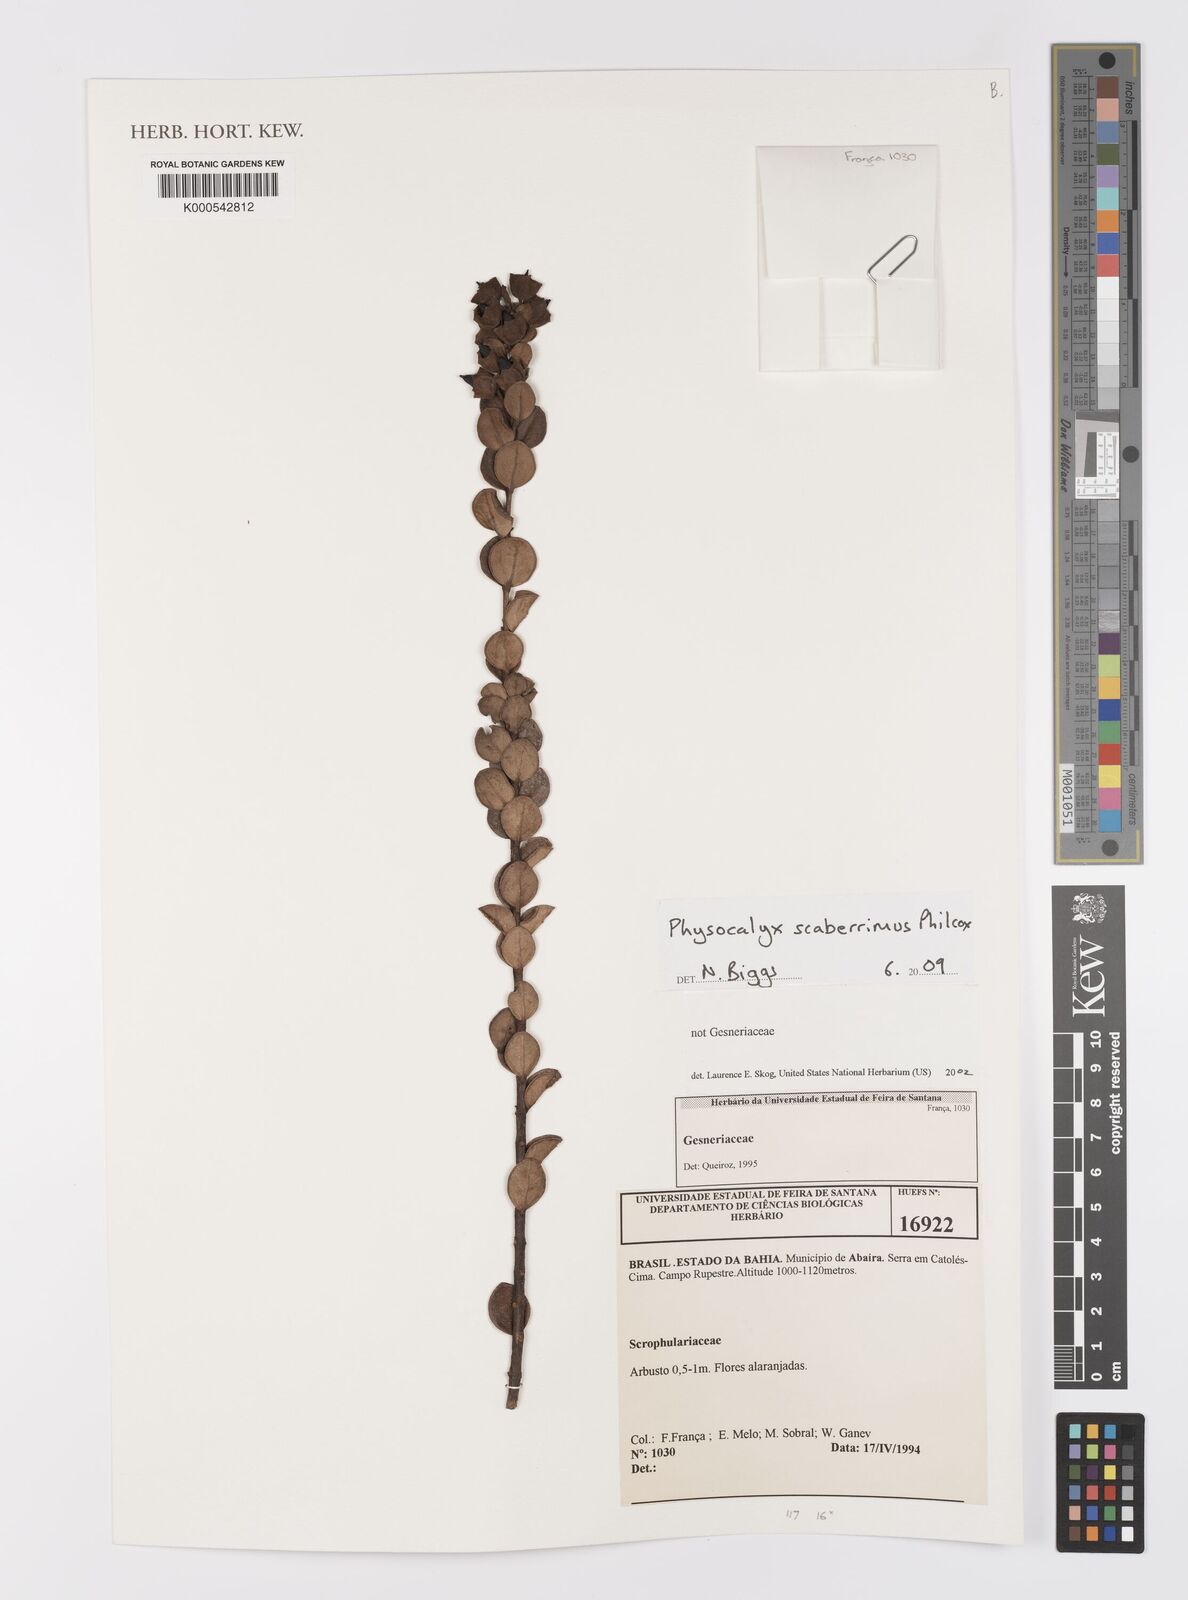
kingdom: Plantae
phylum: Tracheophyta
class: Magnoliopsida
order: Lamiales
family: Orobanchaceae
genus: Physocalyx
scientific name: Physocalyx scaberrimus
